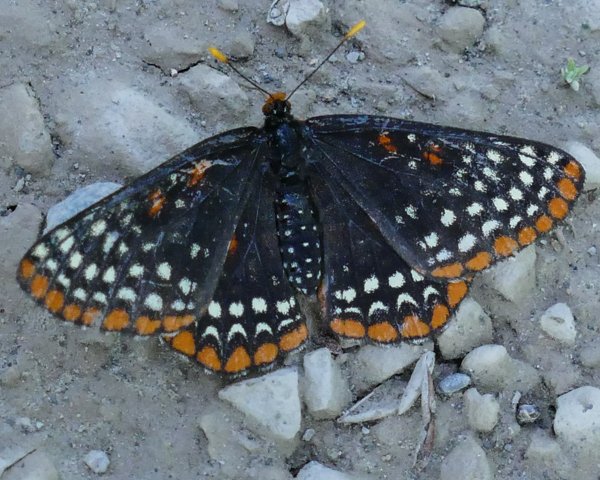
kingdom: Animalia
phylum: Arthropoda
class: Insecta
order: Lepidoptera
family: Nymphalidae
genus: Euphydryas
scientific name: Euphydryas phaeton
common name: Baltimore Checkerspot
